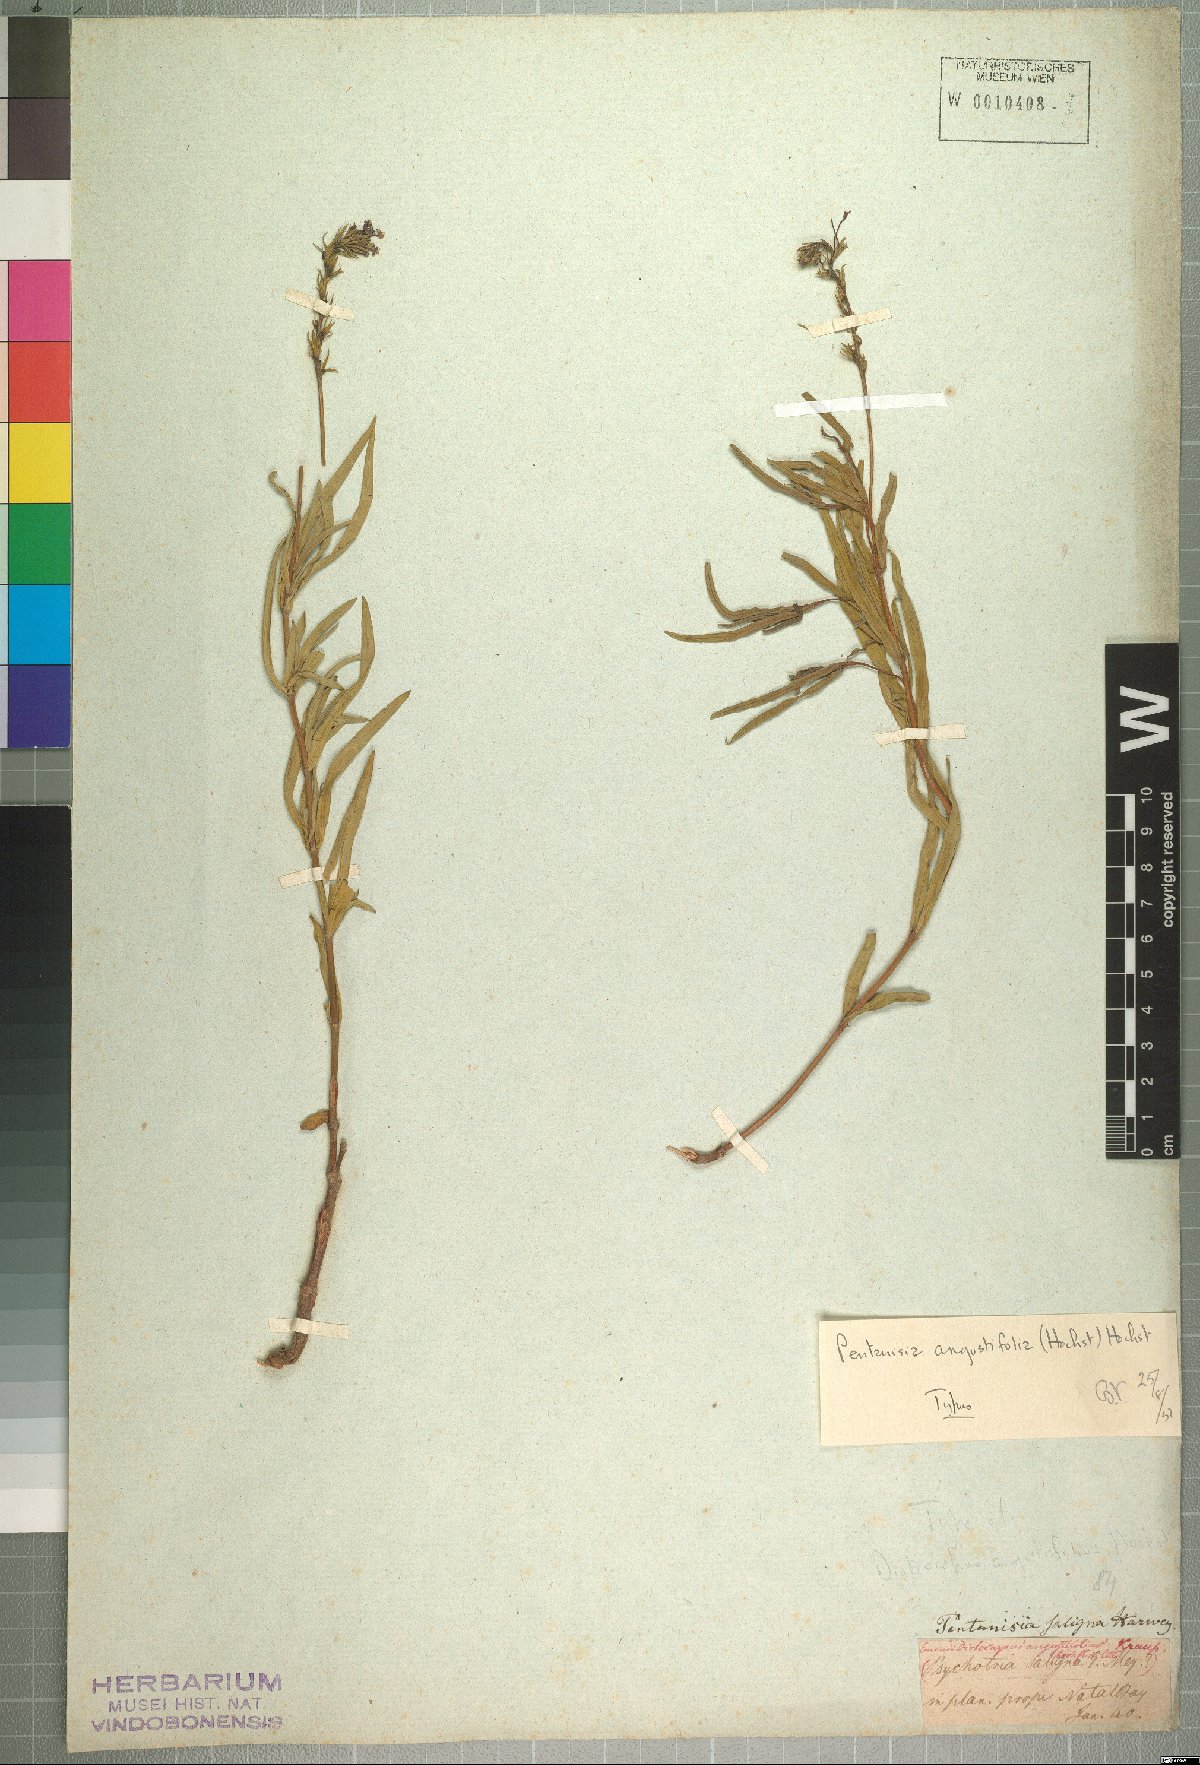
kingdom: Plantae
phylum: Tracheophyta
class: Magnoliopsida
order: Gentianales
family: Rubiaceae
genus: Pentanisia
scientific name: Pentanisia angustifolia
